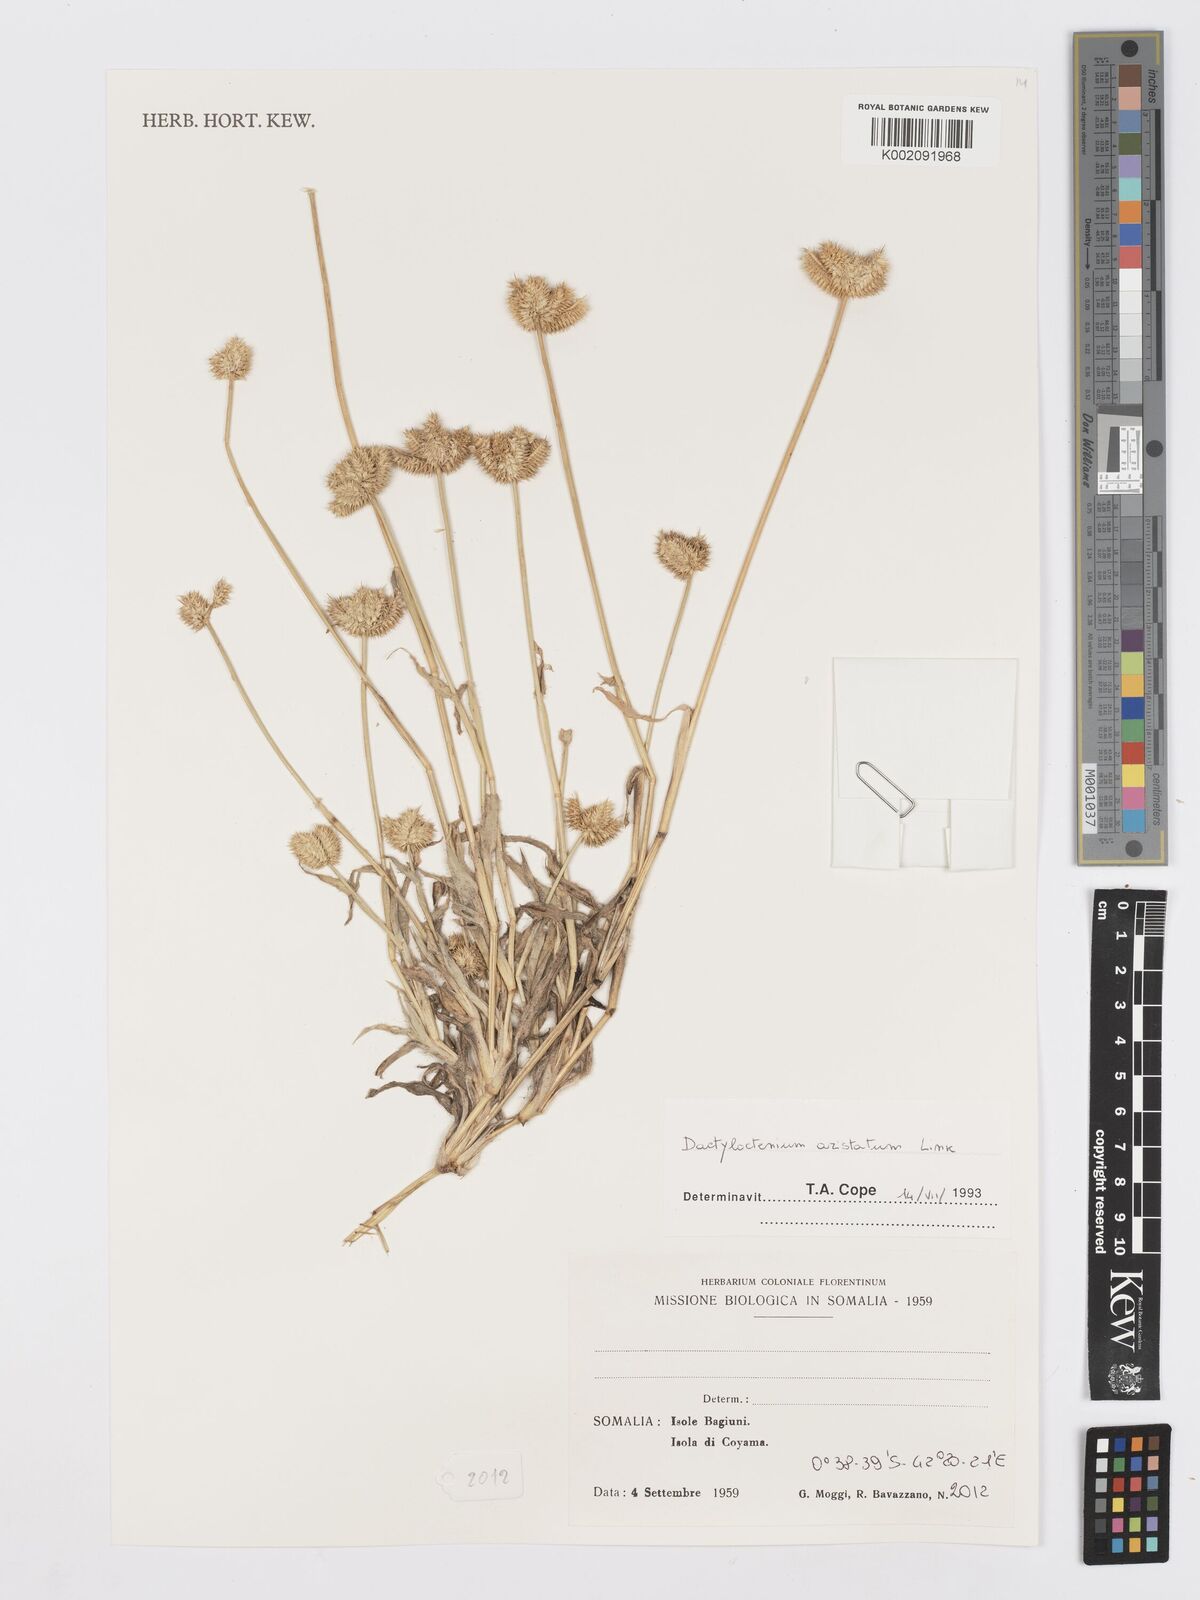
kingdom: Plantae
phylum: Tracheophyta
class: Liliopsida
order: Poales
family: Poaceae
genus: Dactyloctenium
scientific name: Dactyloctenium aristatum
